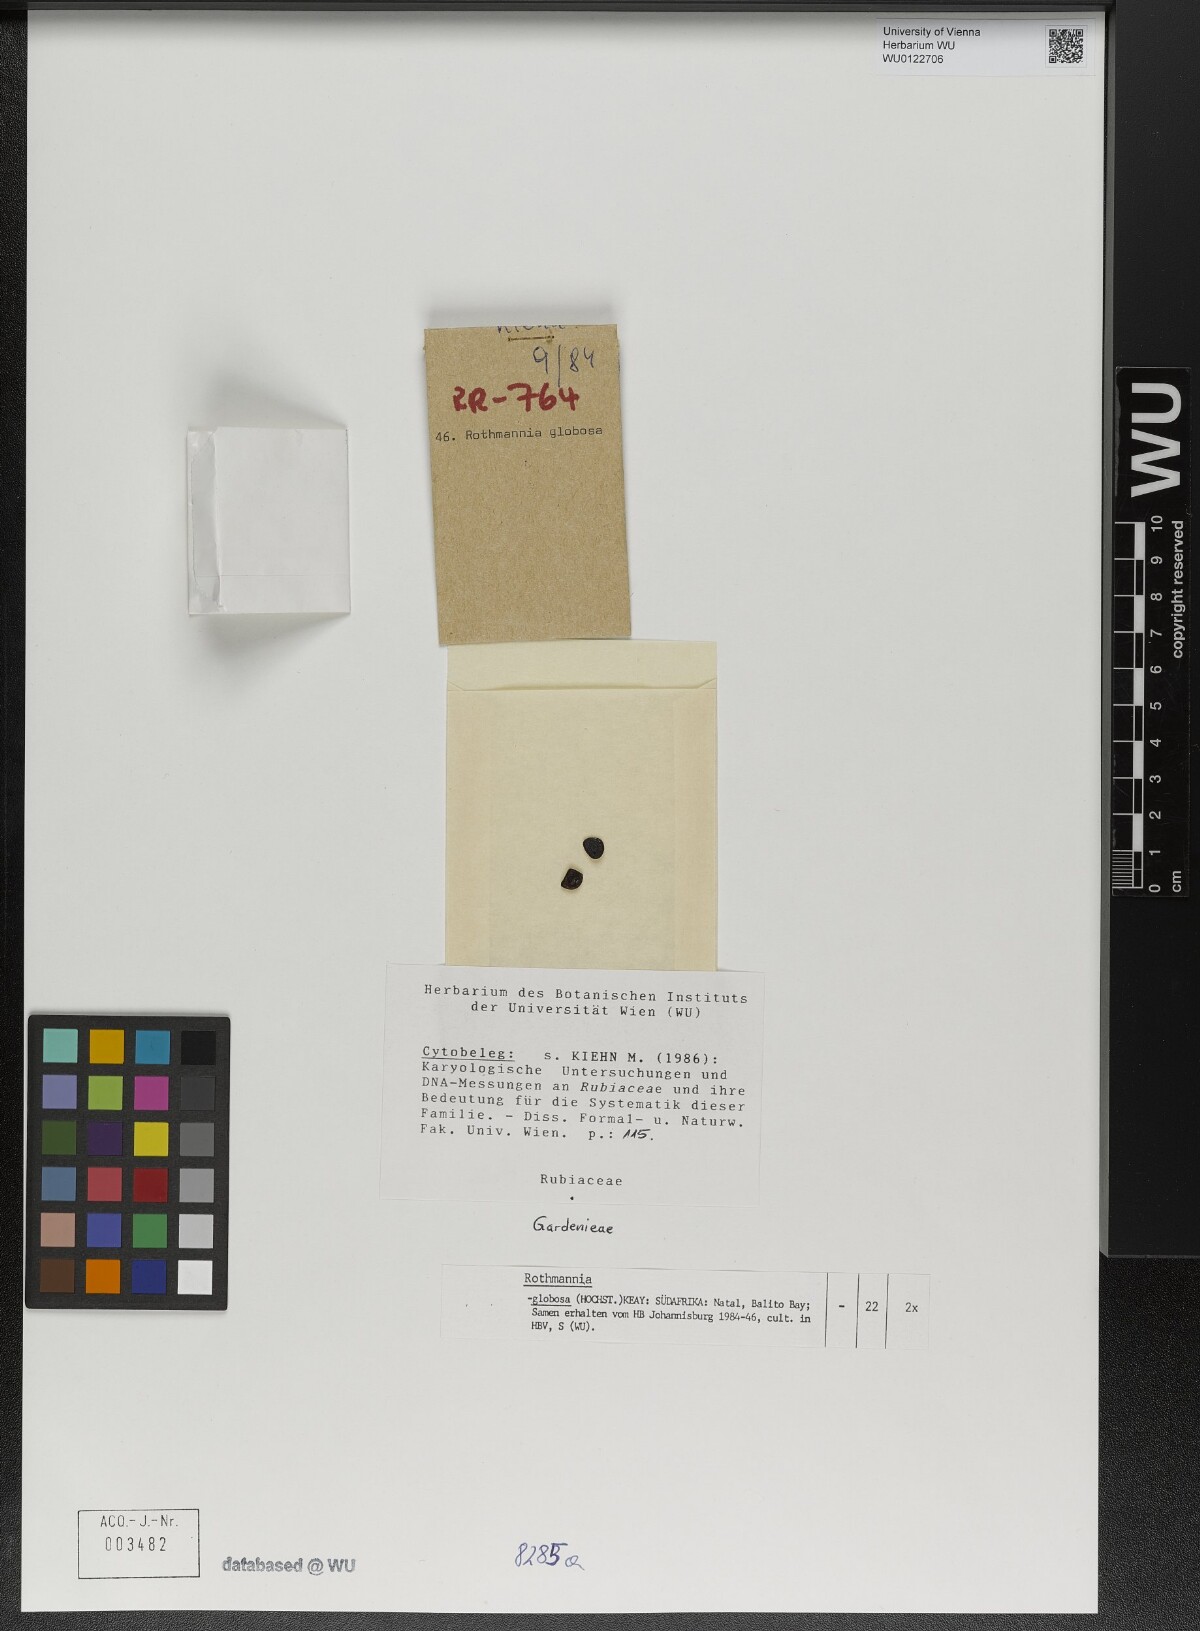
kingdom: Plantae
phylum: Tracheophyta
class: Magnoliopsida
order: Gentianales
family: Rubiaceae
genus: Rothmannia
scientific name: Rothmannia globosa
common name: September bells
